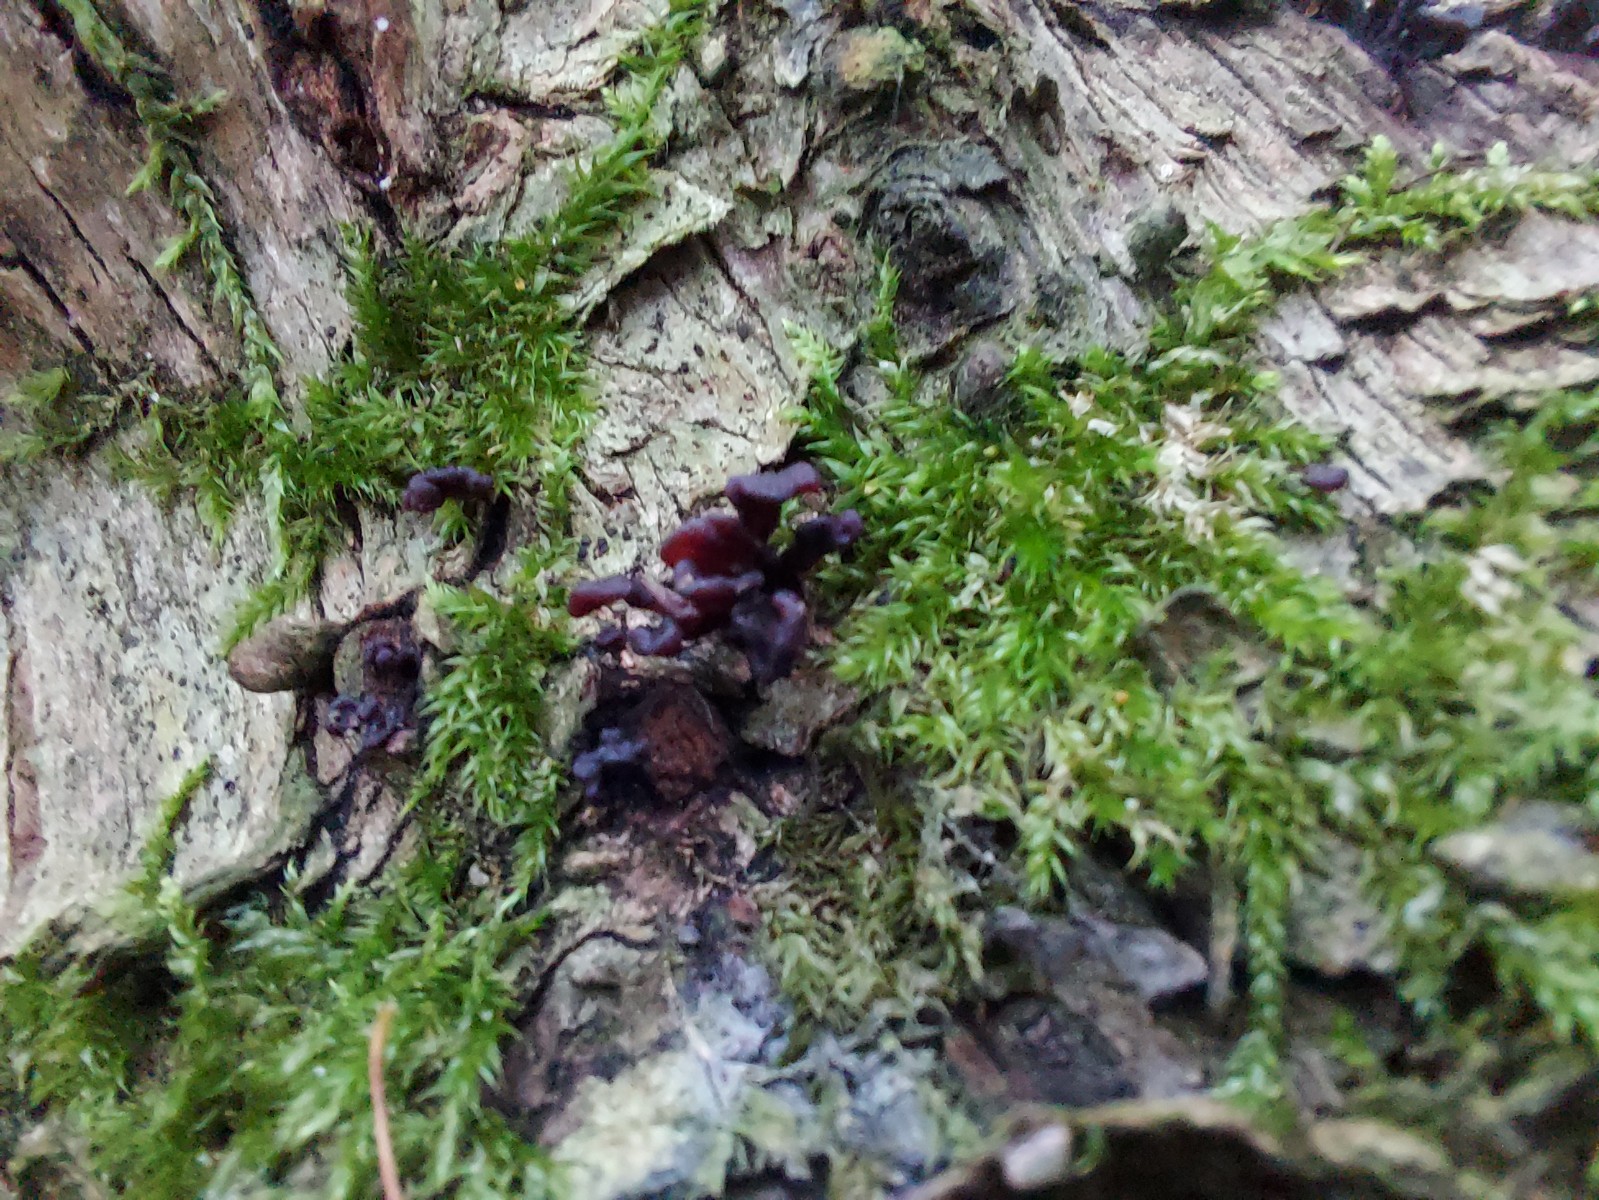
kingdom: Fungi
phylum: Ascomycota
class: Leotiomycetes
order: Helotiales
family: Gelatinodiscaceae
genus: Ascocoryne
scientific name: Ascocoryne sarcoides
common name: rødlilla sejskive
